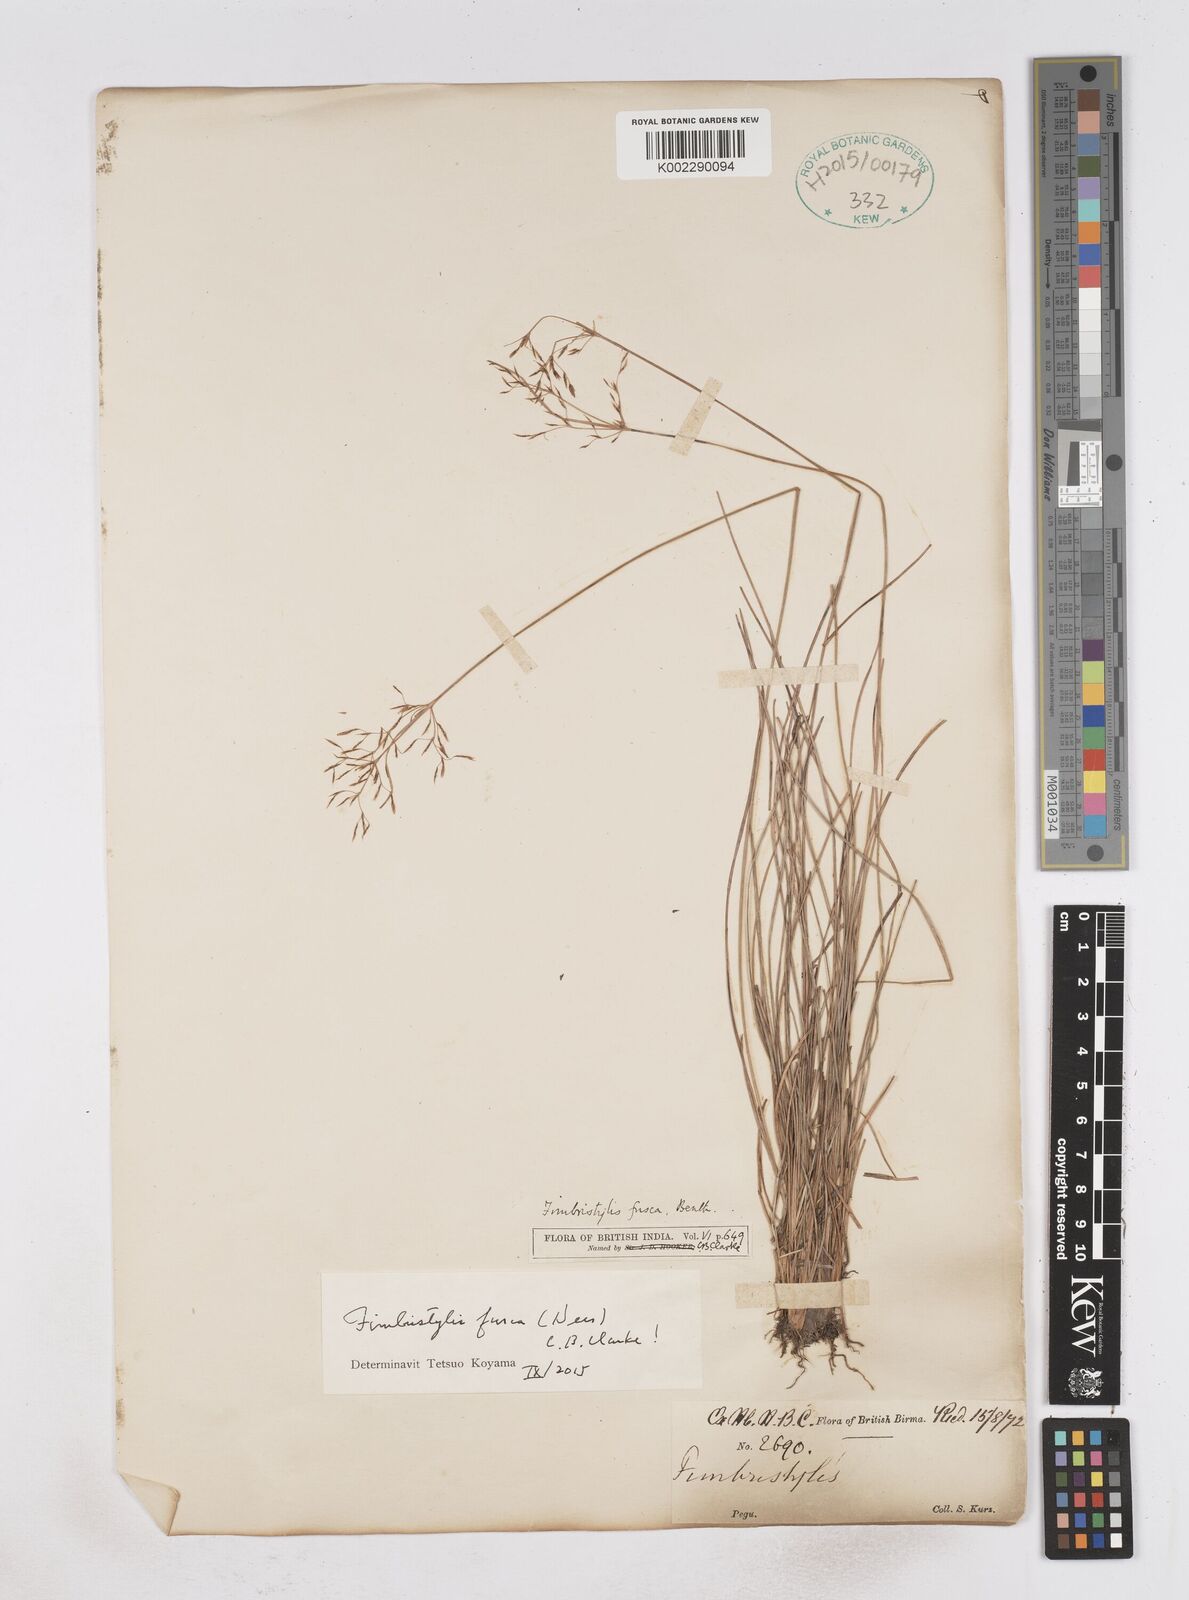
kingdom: Plantae
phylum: Tracheophyta
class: Liliopsida
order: Poales
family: Cyperaceae
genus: Fimbristylis
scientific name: Fimbristylis fusca
